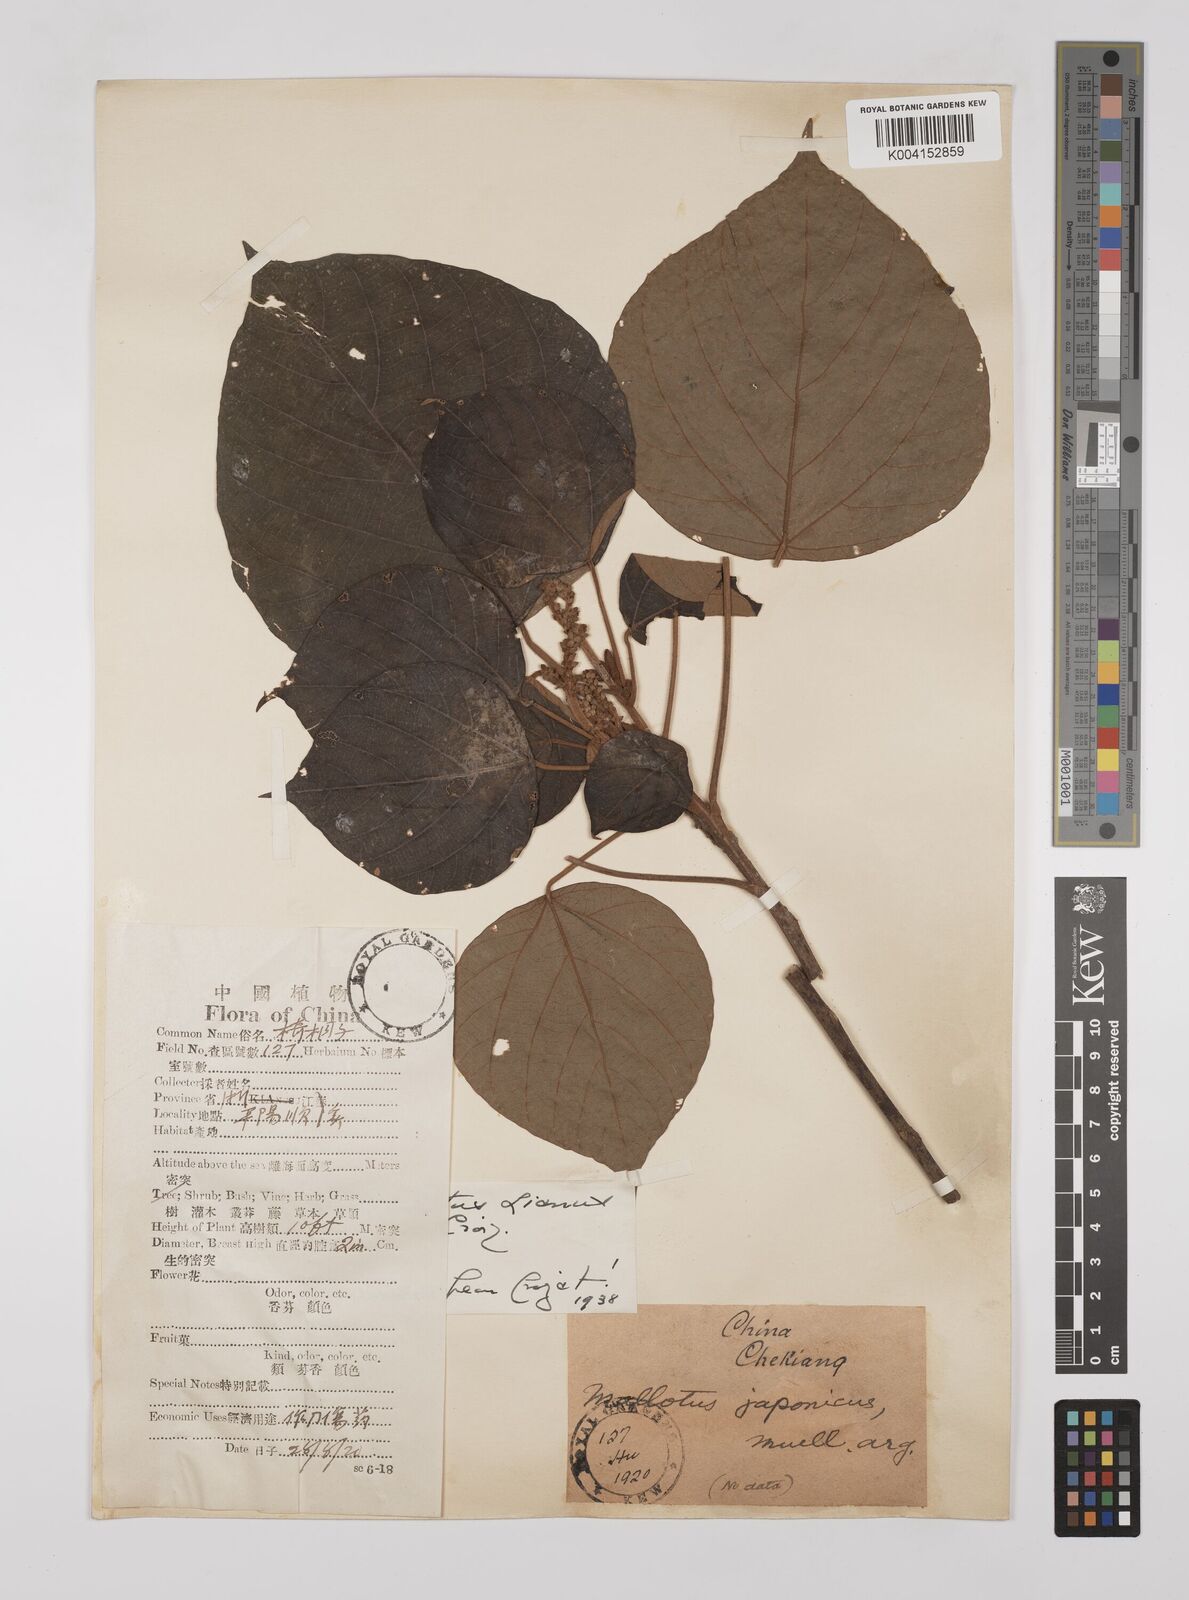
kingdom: Plantae
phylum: Tracheophyta
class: Magnoliopsida
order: Malpighiales
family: Euphorbiaceae
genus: Mallotus
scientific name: Mallotus lianus
